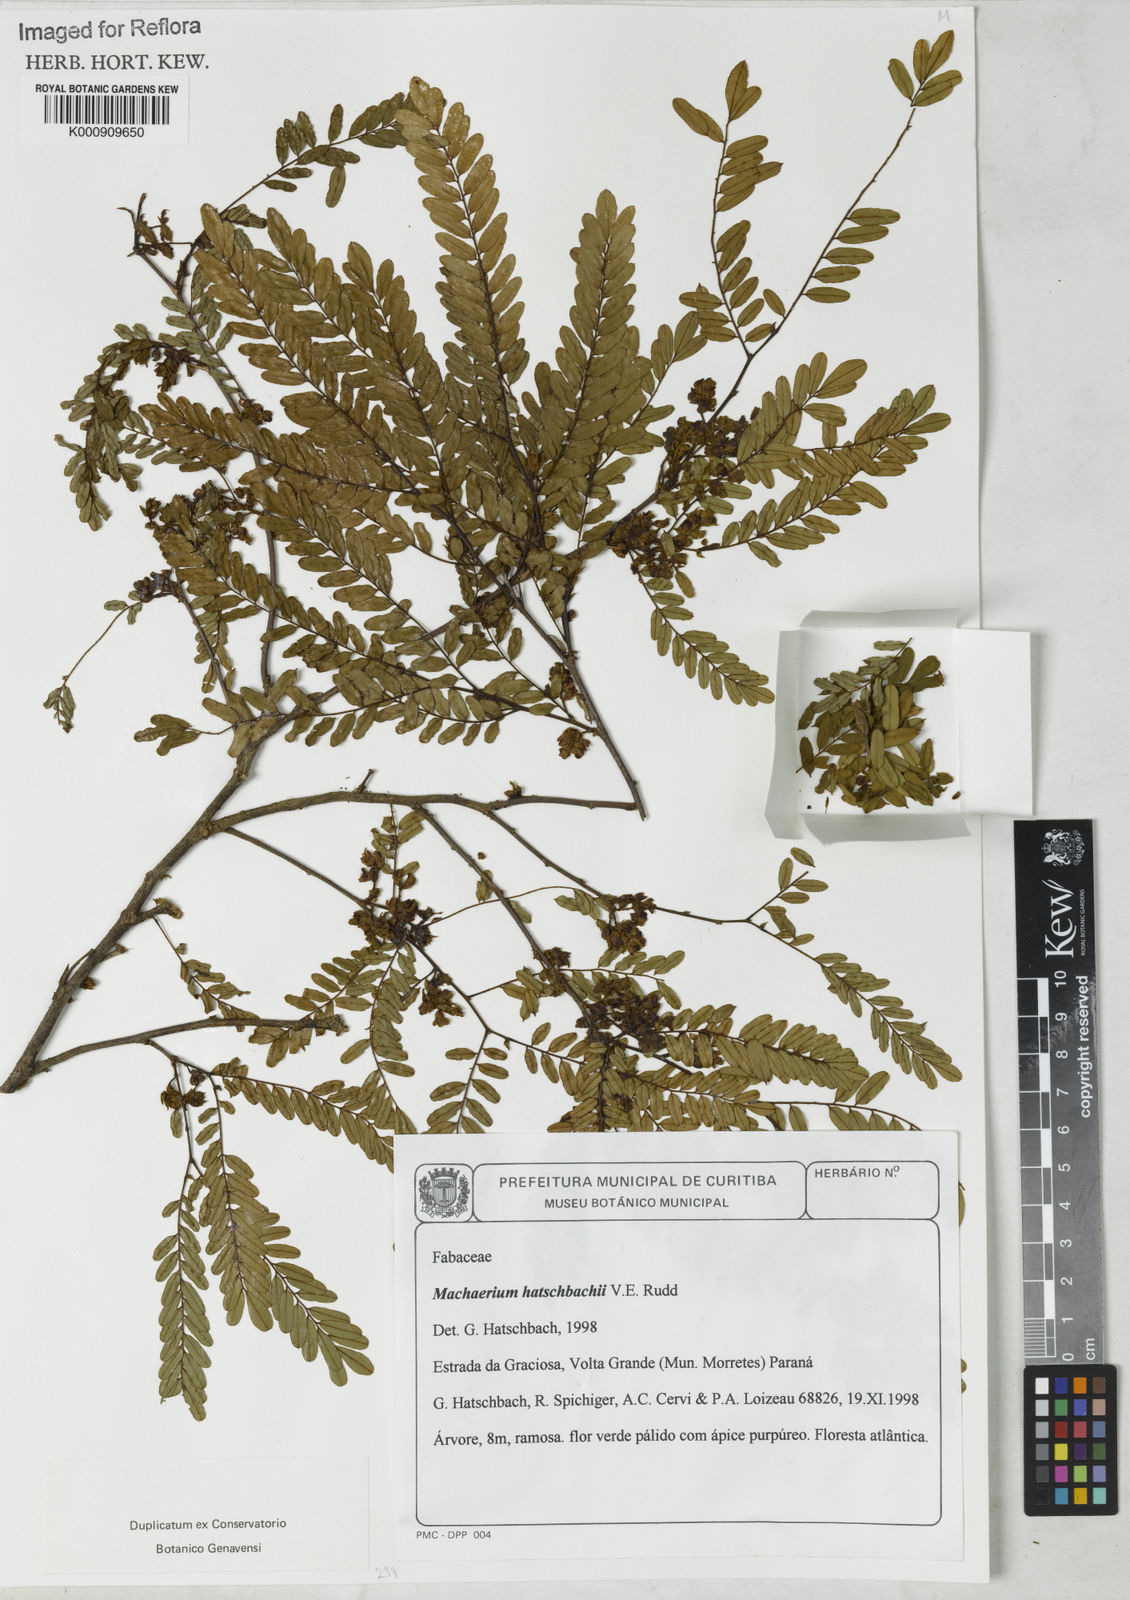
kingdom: Plantae
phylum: Tracheophyta
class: Magnoliopsida
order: Fabales
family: Fabaceae
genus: Machaerium
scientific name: Machaerium hatschbachii
